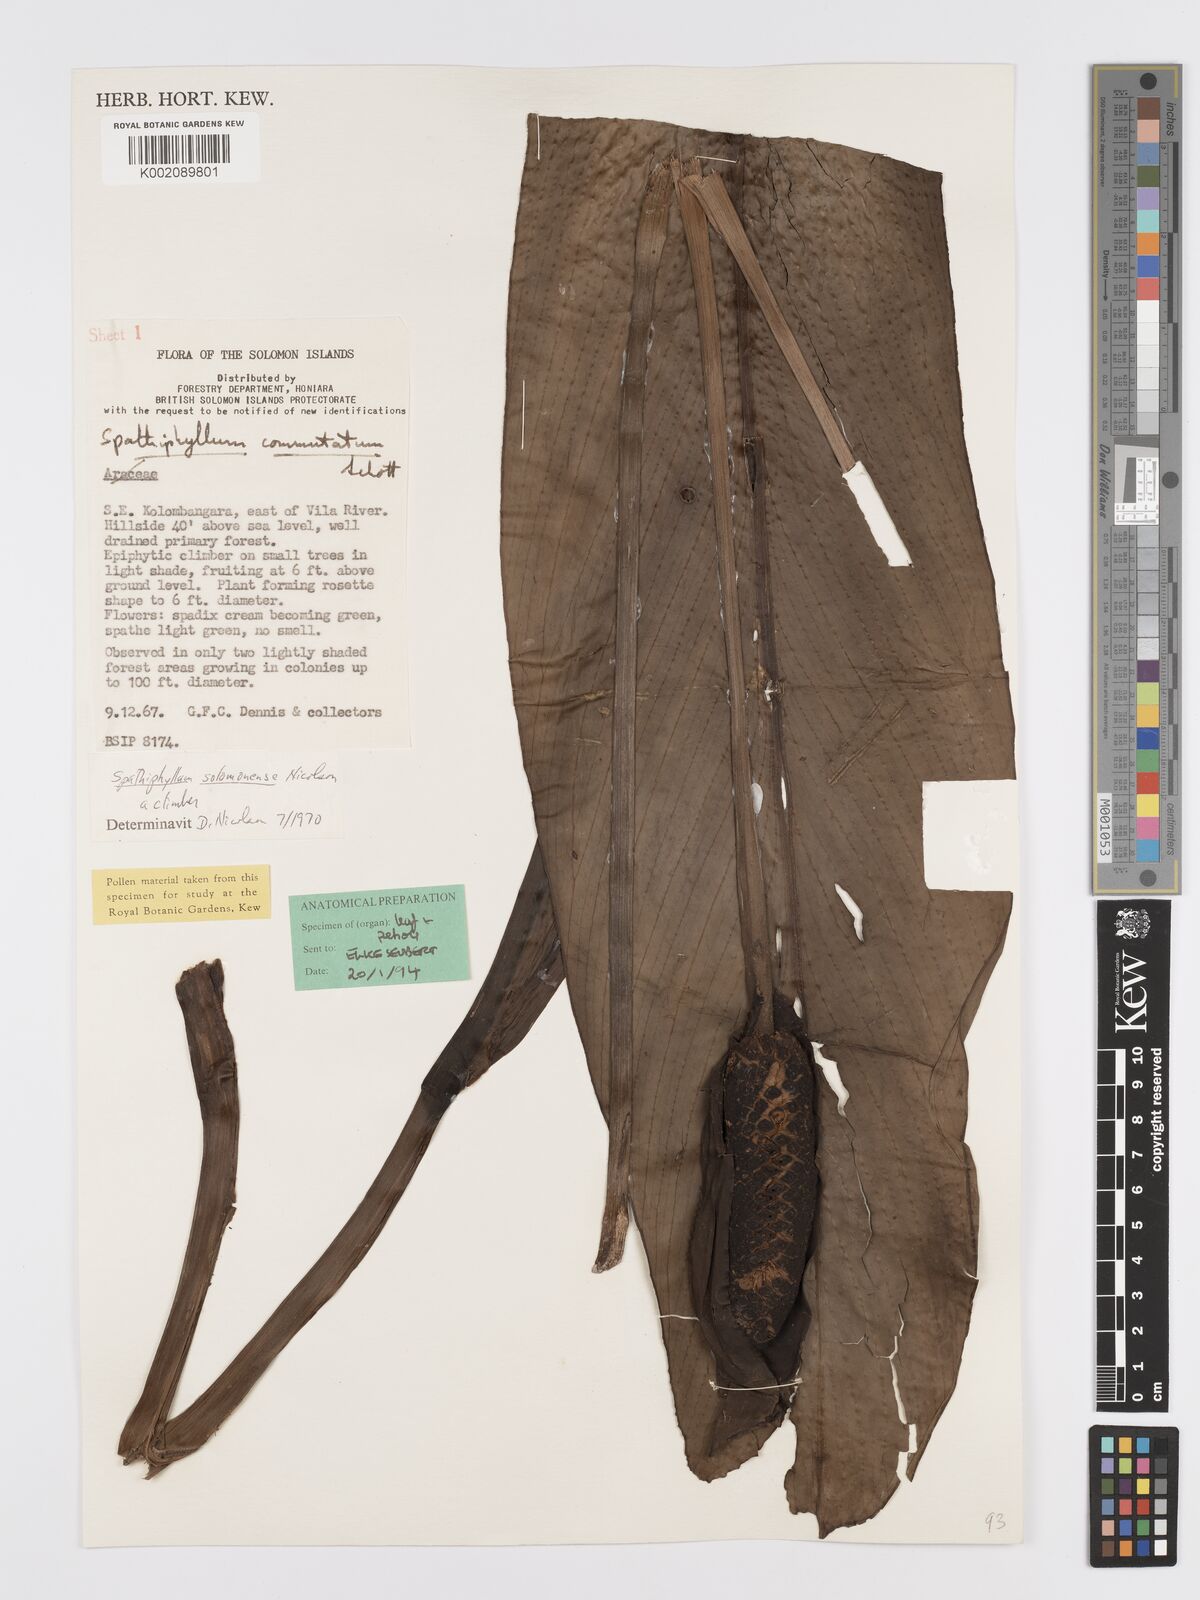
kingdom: Plantae
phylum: Tracheophyta
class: Liliopsida
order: Alismatales
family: Araceae
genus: Spathiphyllum
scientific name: Spathiphyllum solomonense
